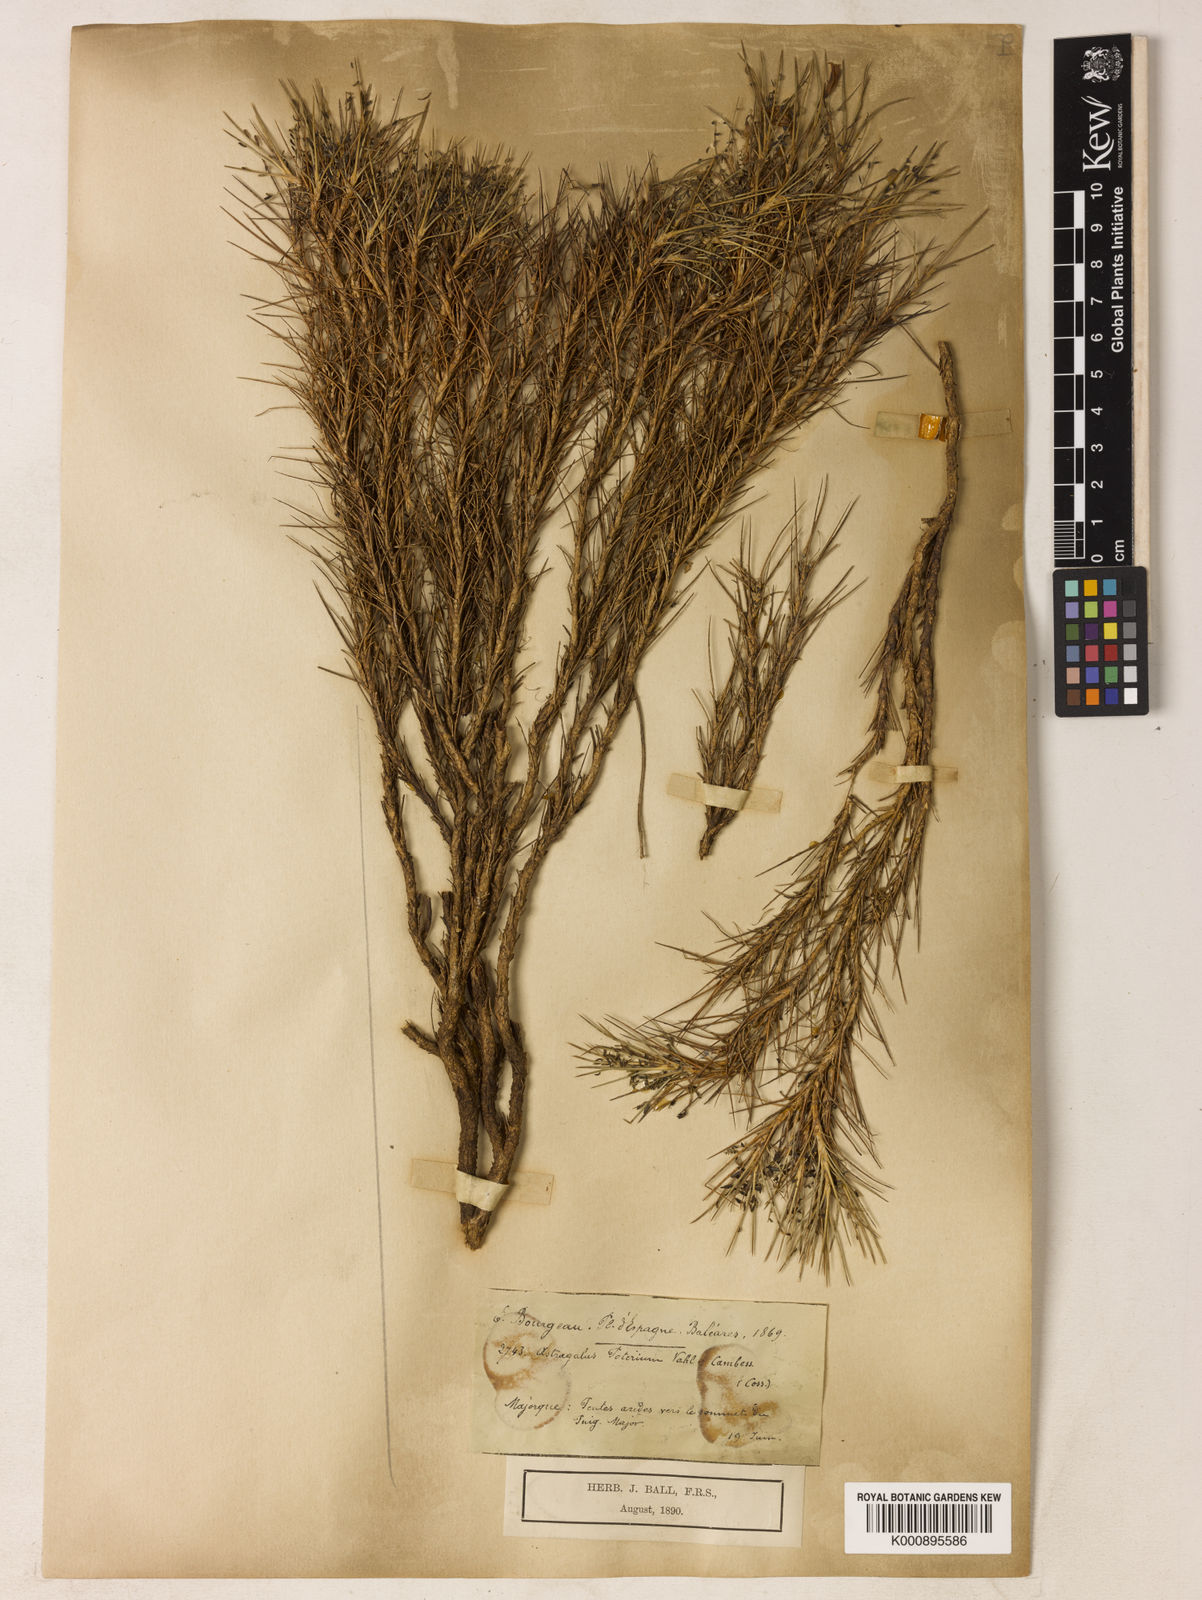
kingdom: Plantae
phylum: Tracheophyta
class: Magnoliopsida
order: Fabales
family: Fabaceae
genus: Astragalus
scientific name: Astragalus balearicus
